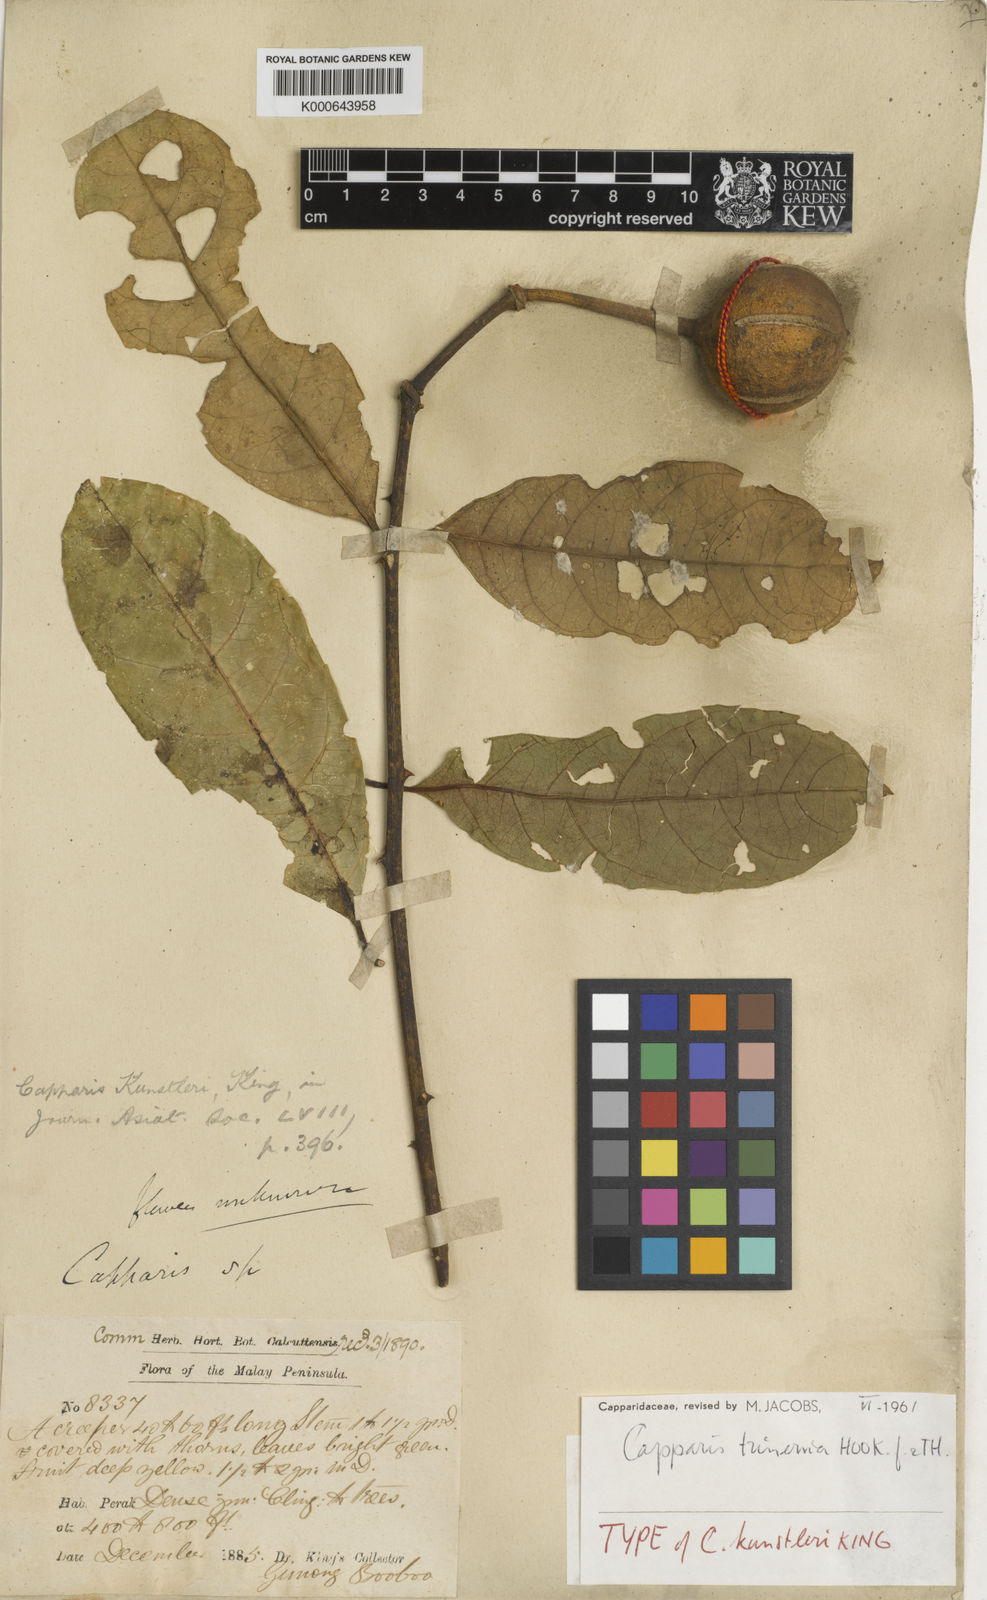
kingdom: Plantae
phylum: Tracheophyta
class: Magnoliopsida
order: Brassicales
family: Capparaceae
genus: Capparis
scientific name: Capparis trinervia
